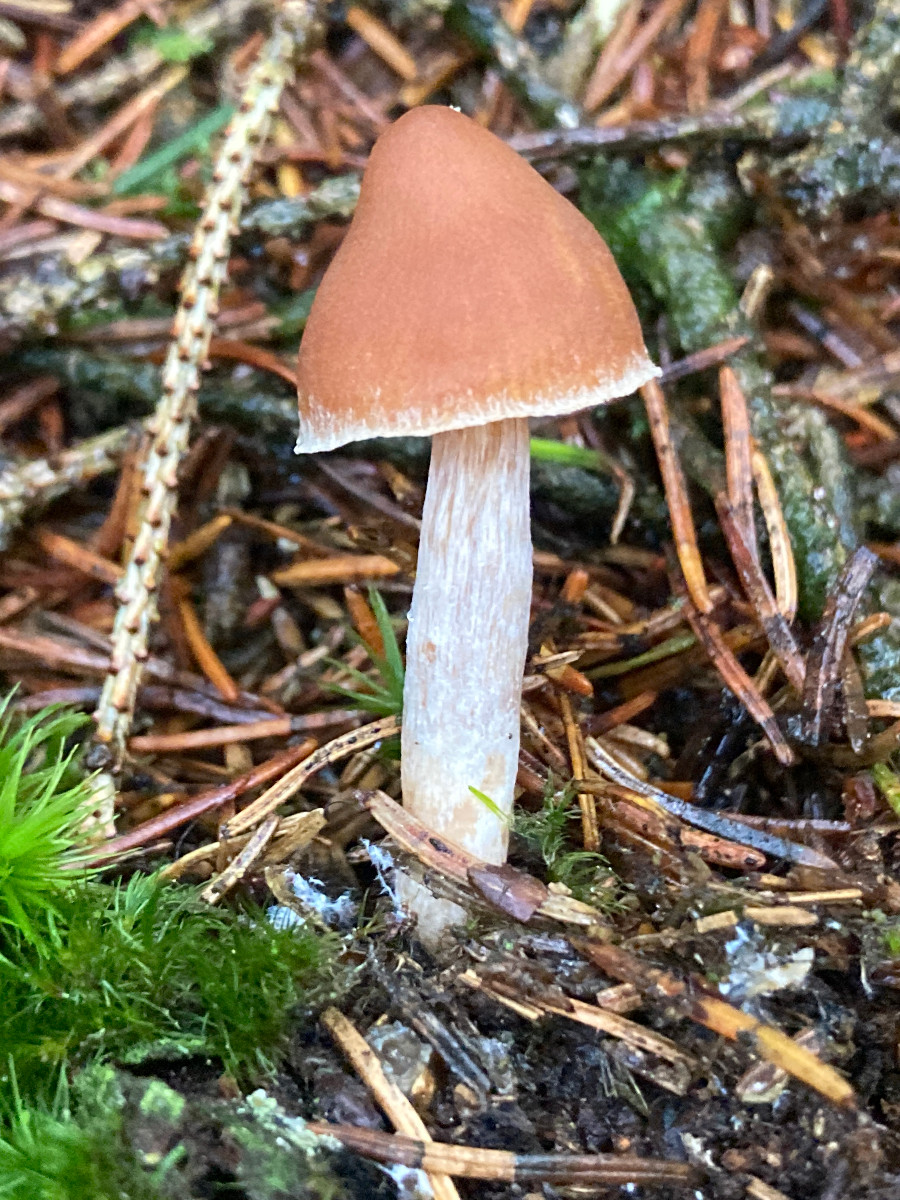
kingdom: Fungi
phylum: Basidiomycota
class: Agaricomycetes
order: Agaricales
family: Cortinariaceae
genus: Cortinarius
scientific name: Cortinarius
